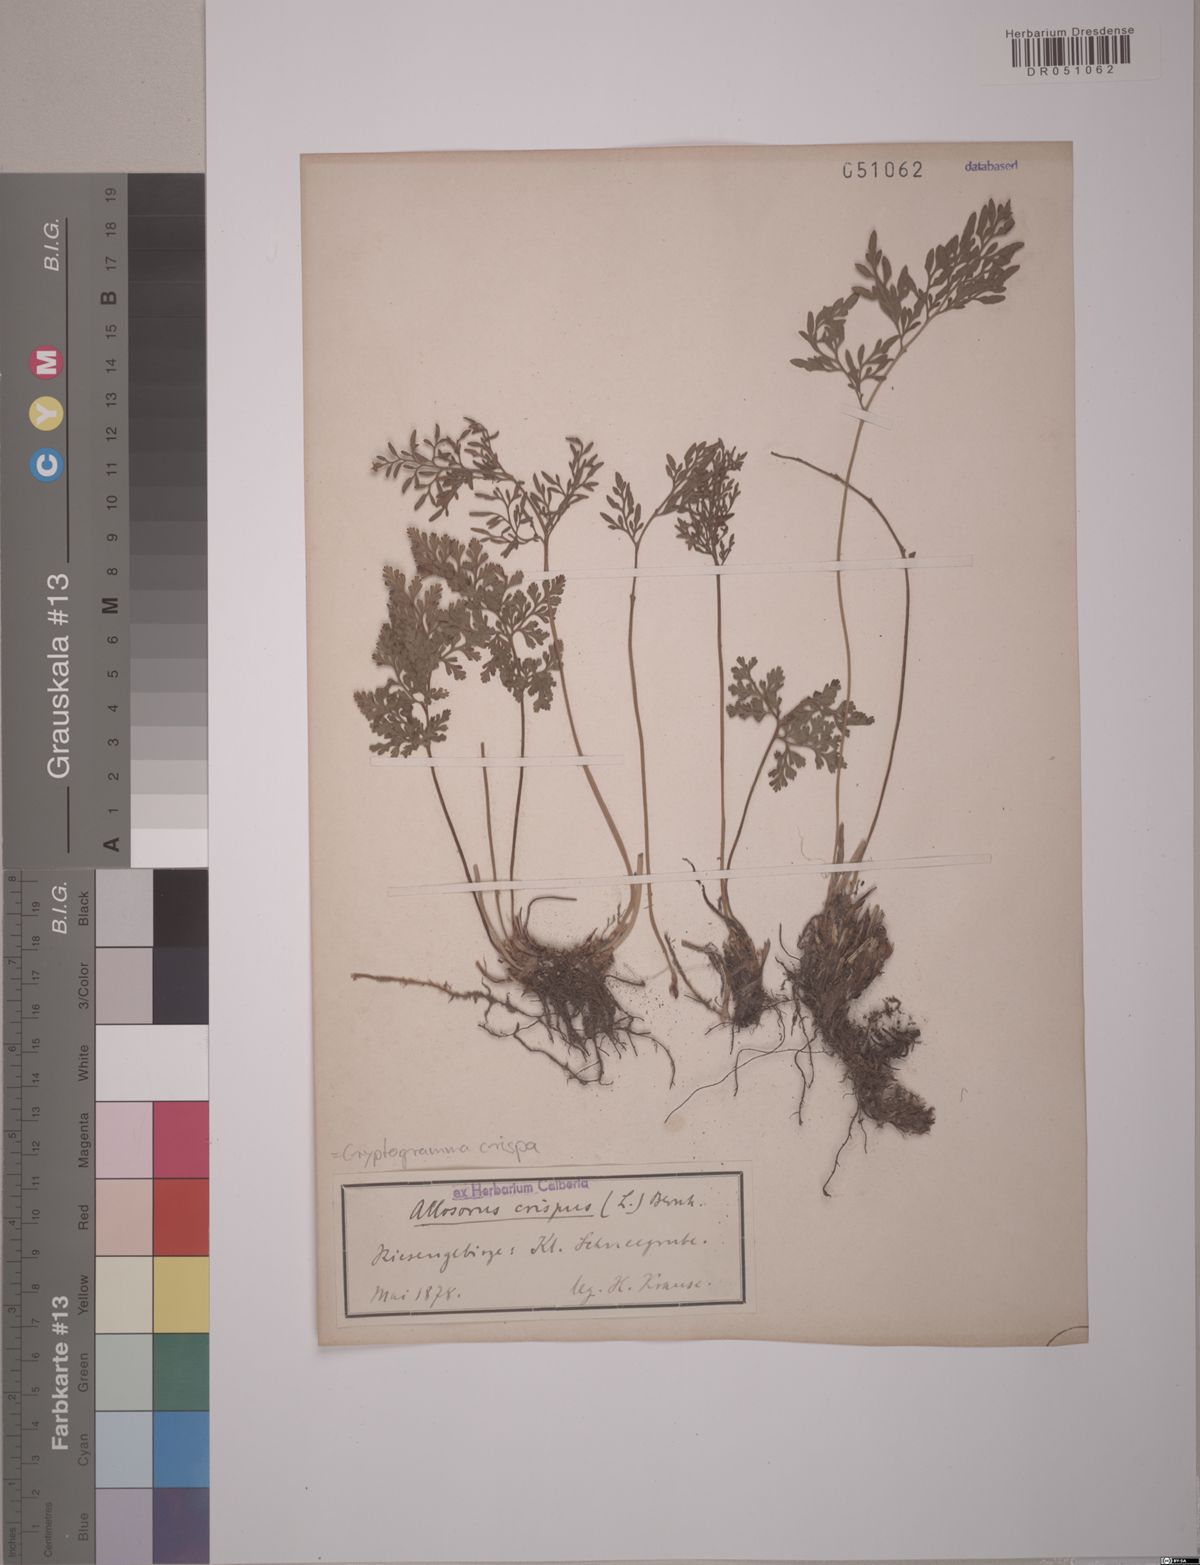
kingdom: Plantae
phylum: Tracheophyta
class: Polypodiopsida
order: Polypodiales
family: Pteridaceae
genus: Cryptogramma
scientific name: Cryptogramma crispa
